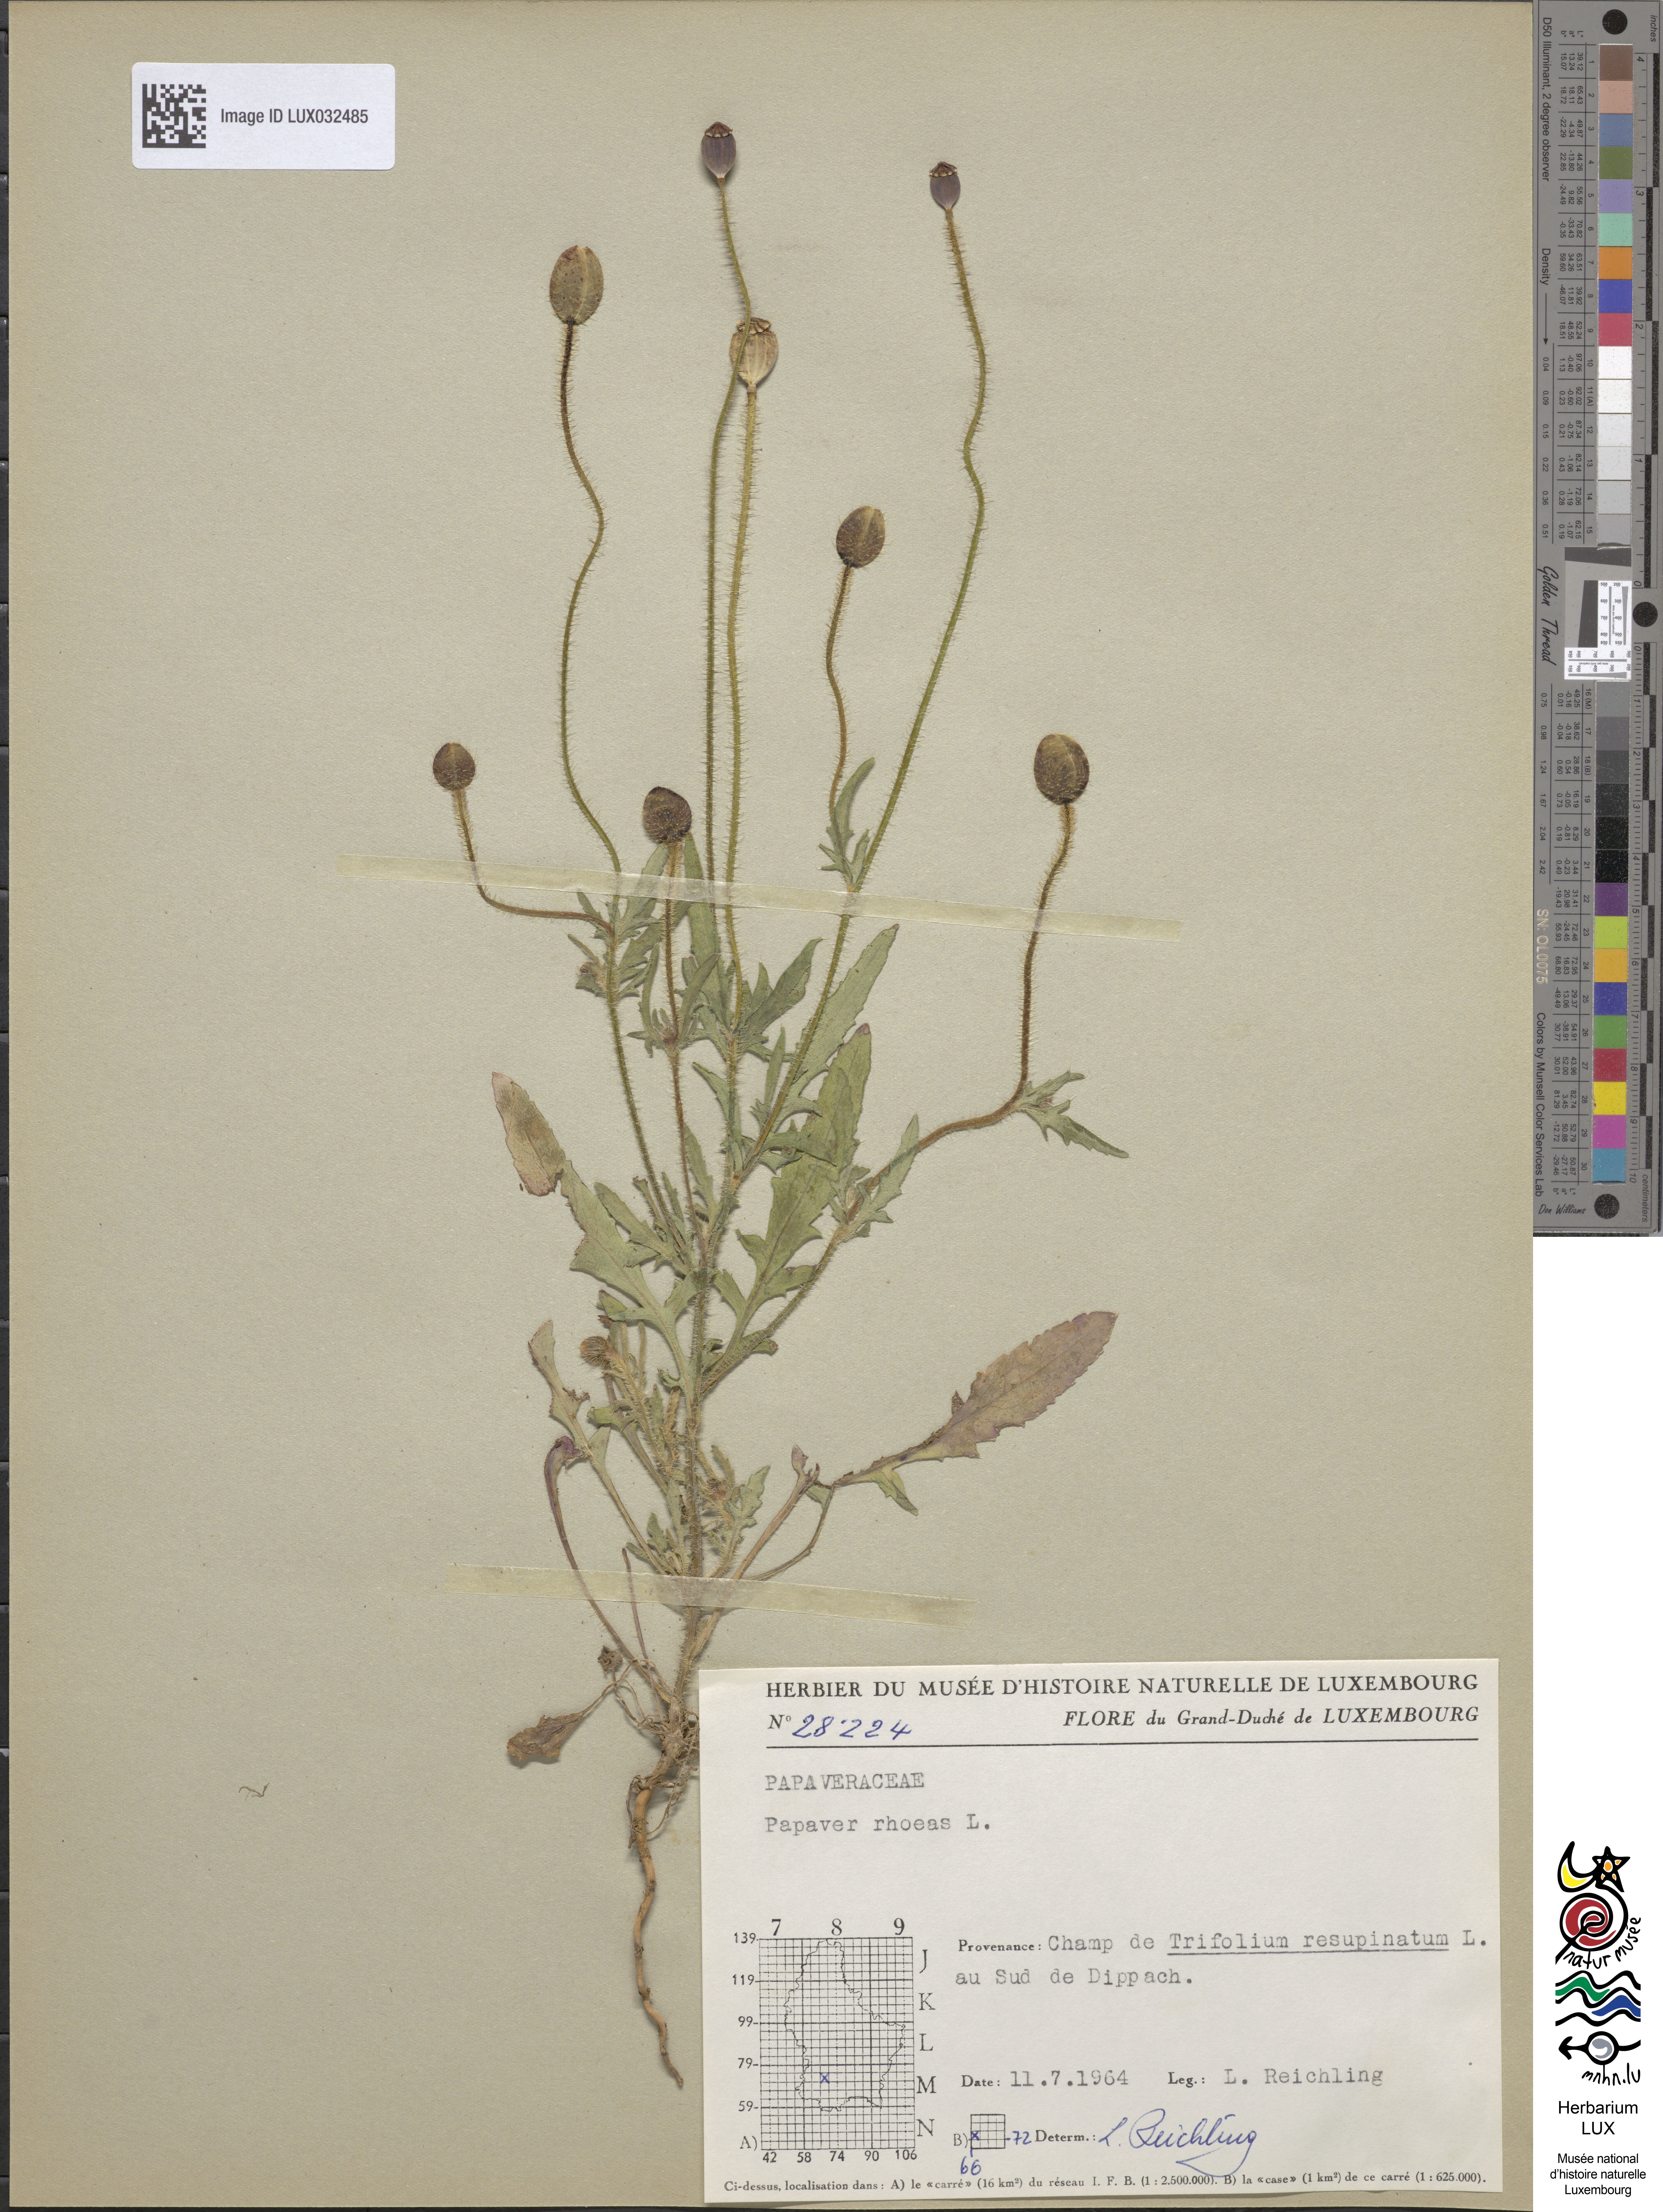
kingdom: Plantae
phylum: Tracheophyta
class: Magnoliopsida
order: Ranunculales
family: Papaveraceae
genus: Papaver
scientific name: Papaver rhoeas
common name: Corn poppy
